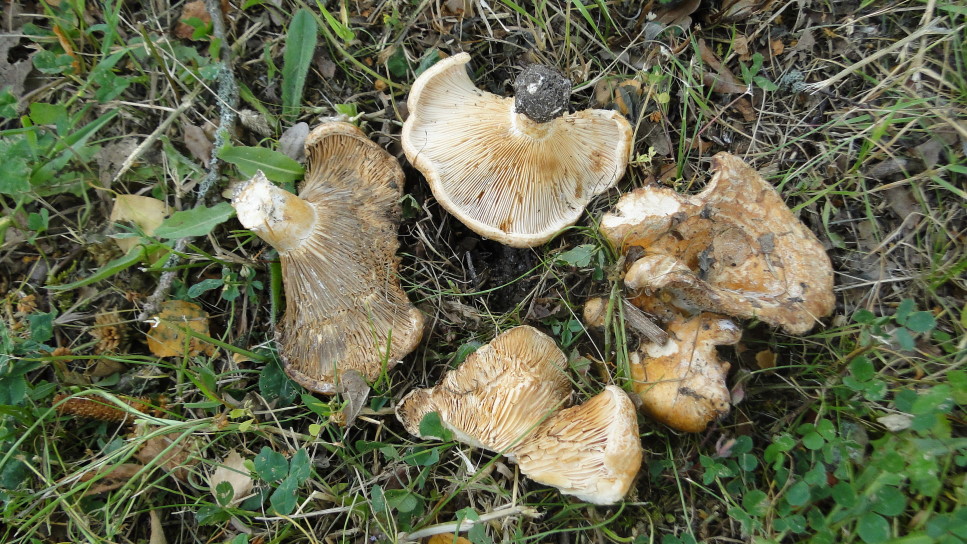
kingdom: Fungi
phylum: Basidiomycota
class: Agaricomycetes
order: Russulales
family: Russulaceae
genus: Lactarius
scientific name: Lactarius acerrimus
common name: brændende mælkehat
